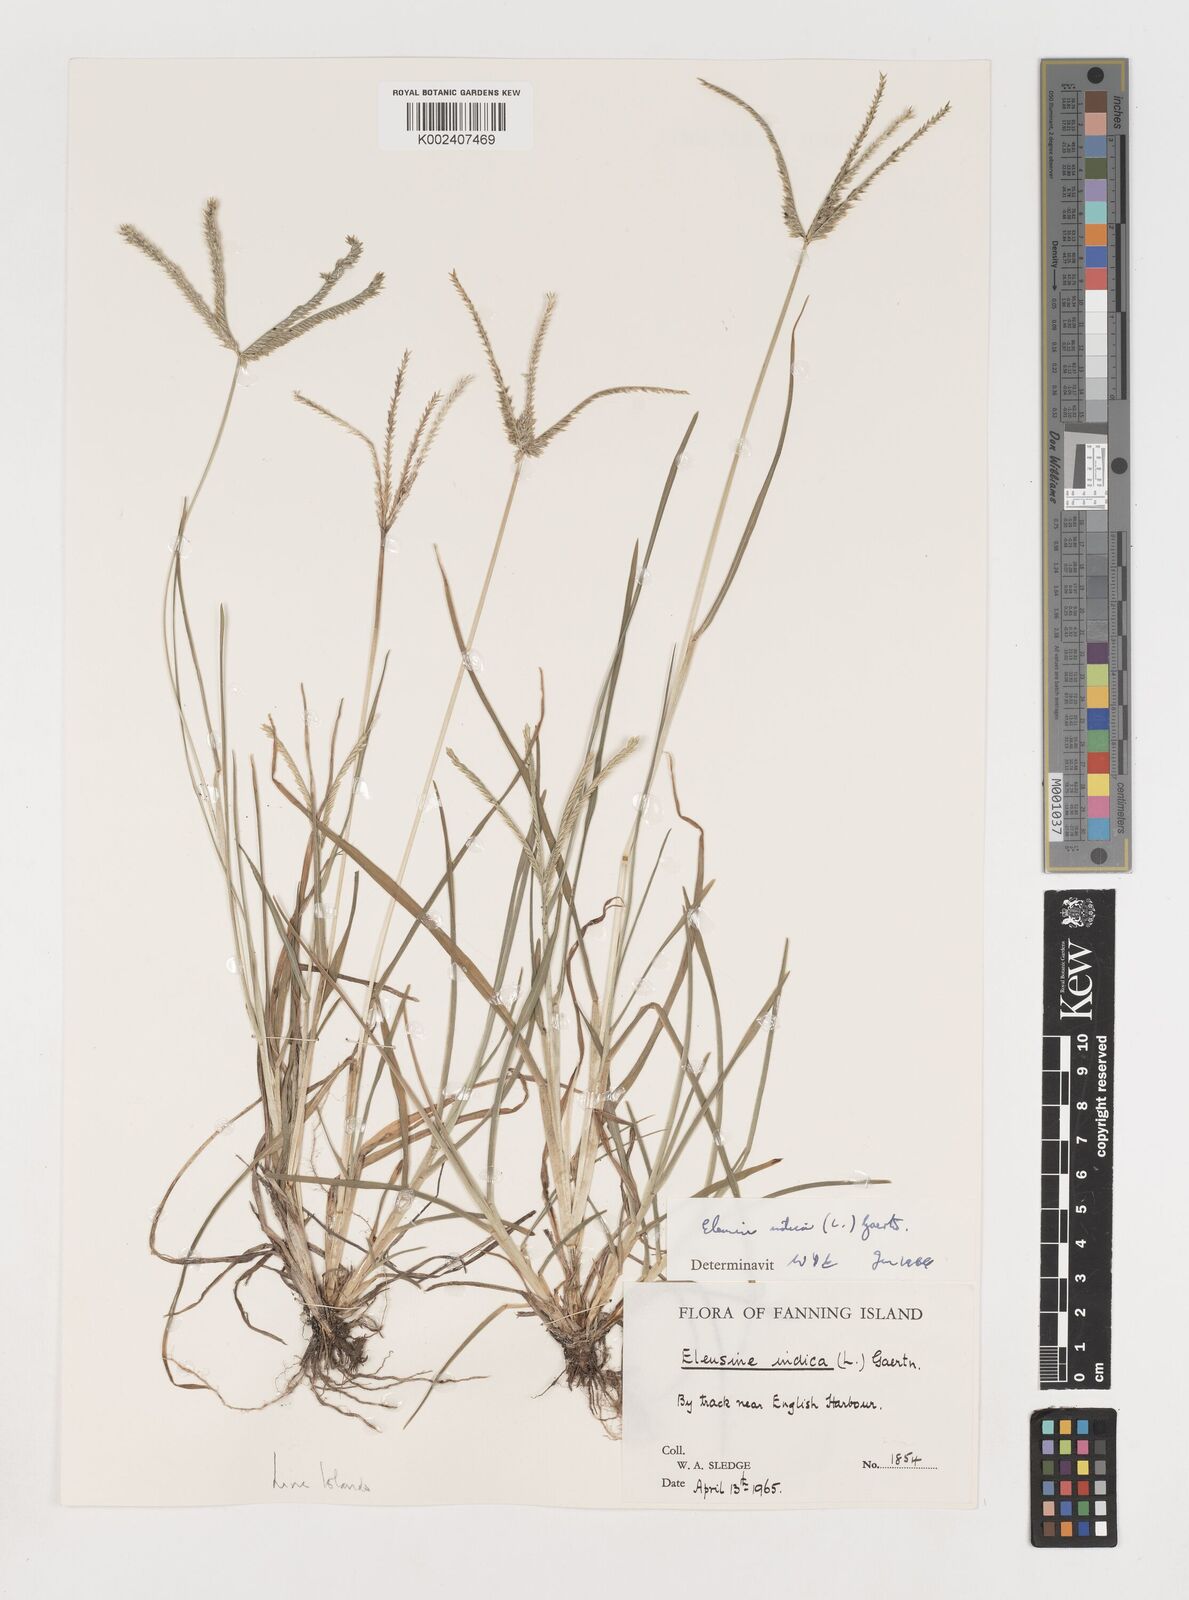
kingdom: Plantae
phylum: Tracheophyta
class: Liliopsida
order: Poales
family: Poaceae
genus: Eleusine
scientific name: Eleusine indica
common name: Yard-grass
